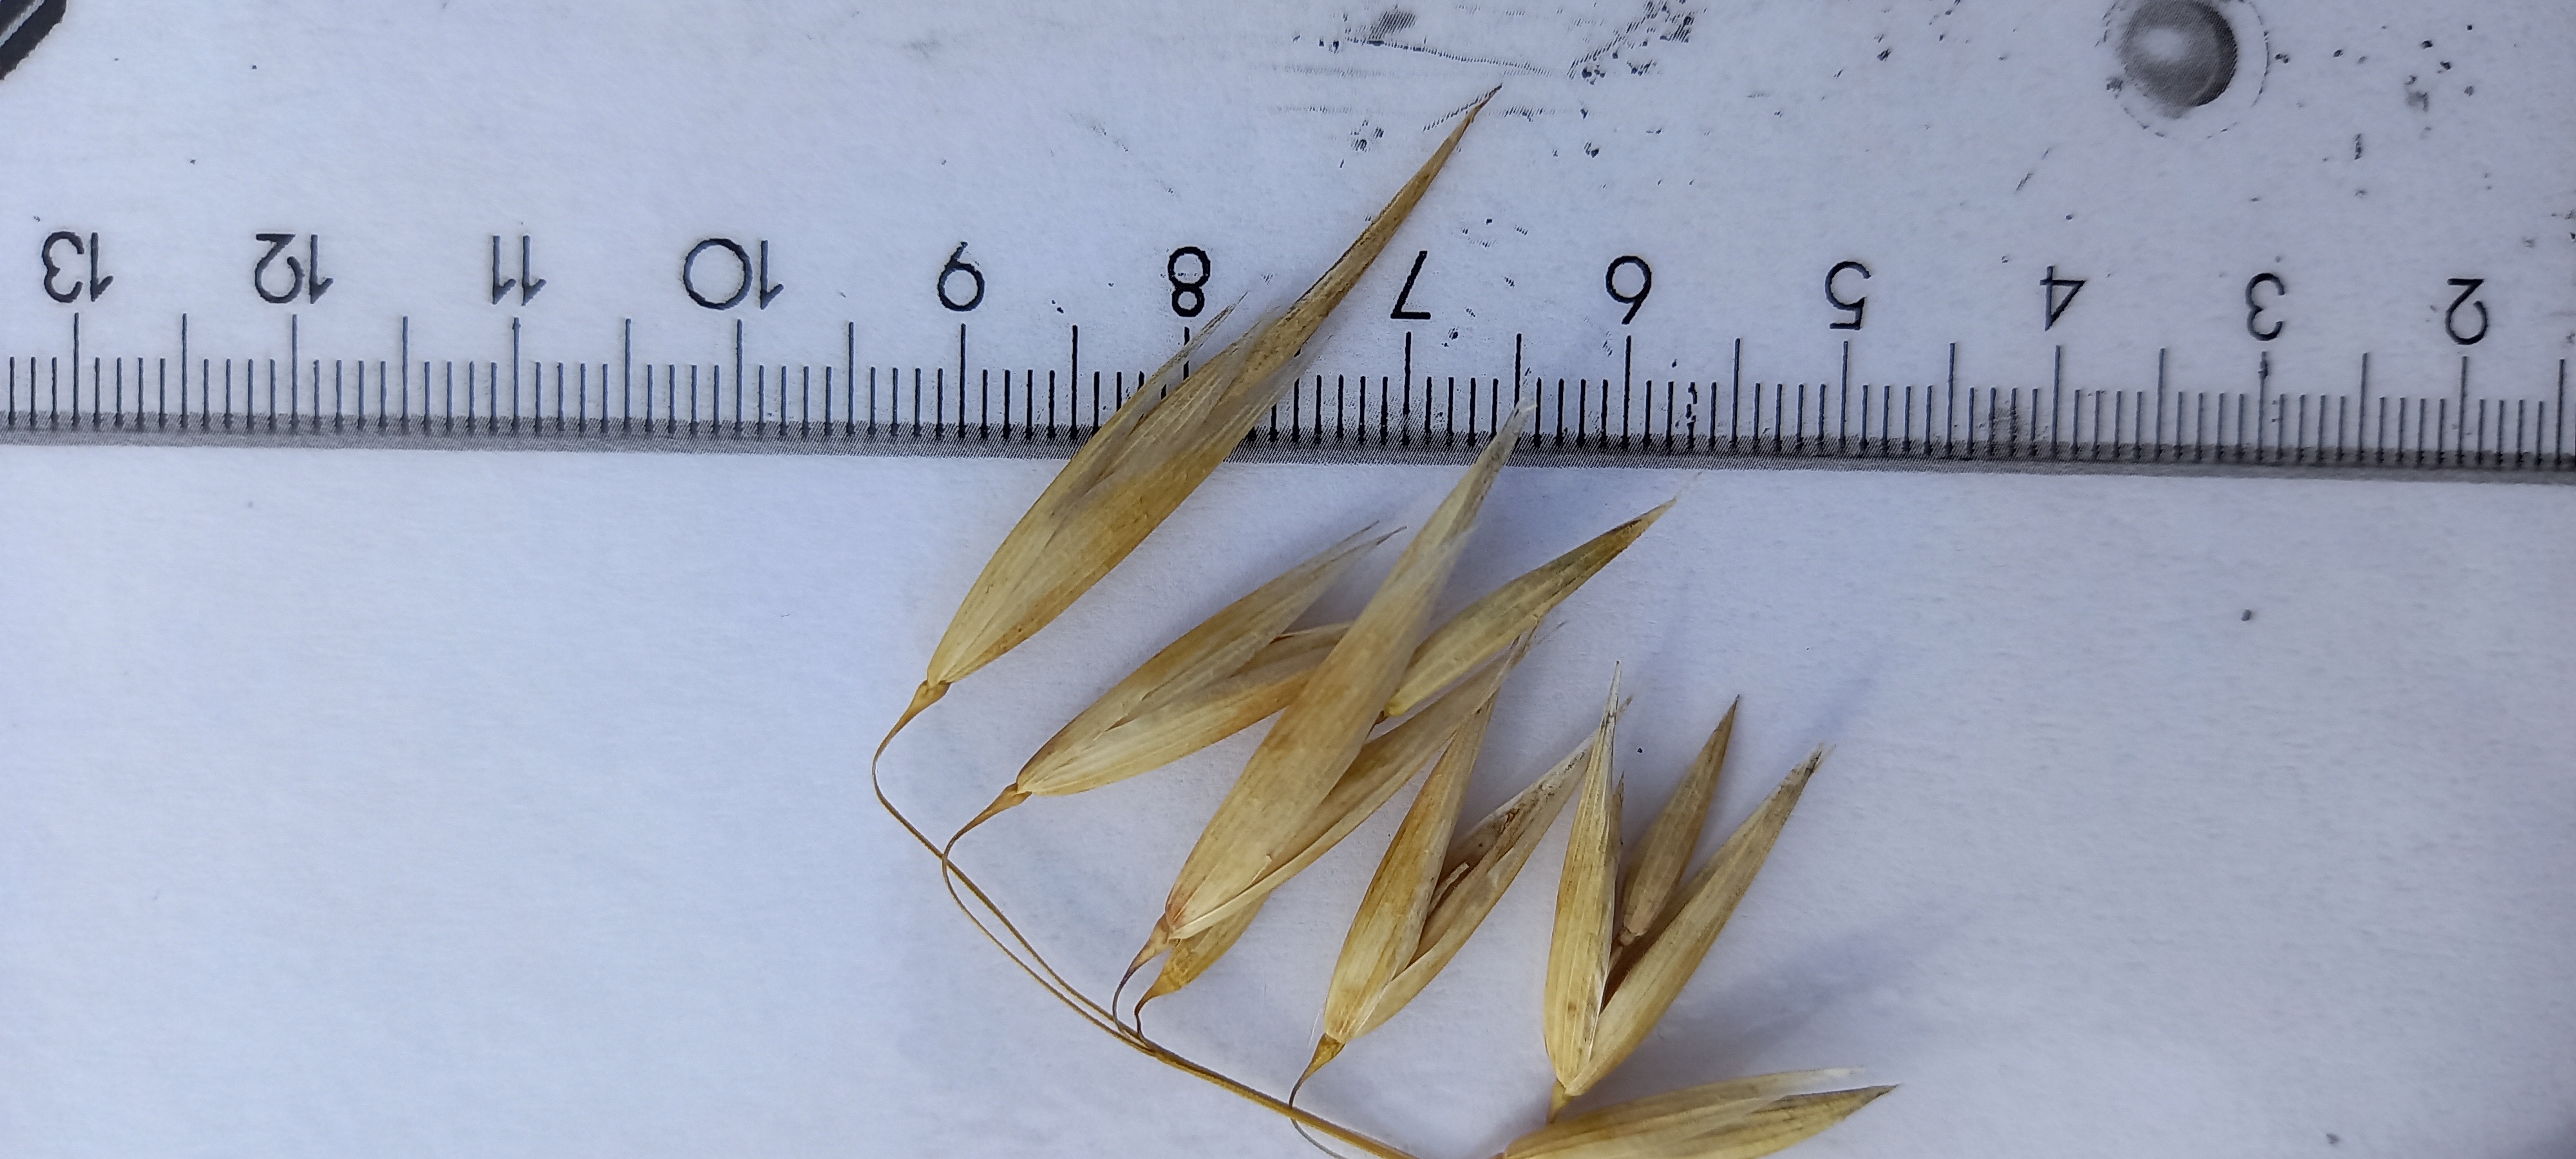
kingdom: Plantae
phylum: Tracheophyta
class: Liliopsida
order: Poales
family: Poaceae
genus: Avena
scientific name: Avena sativa
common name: Oat
